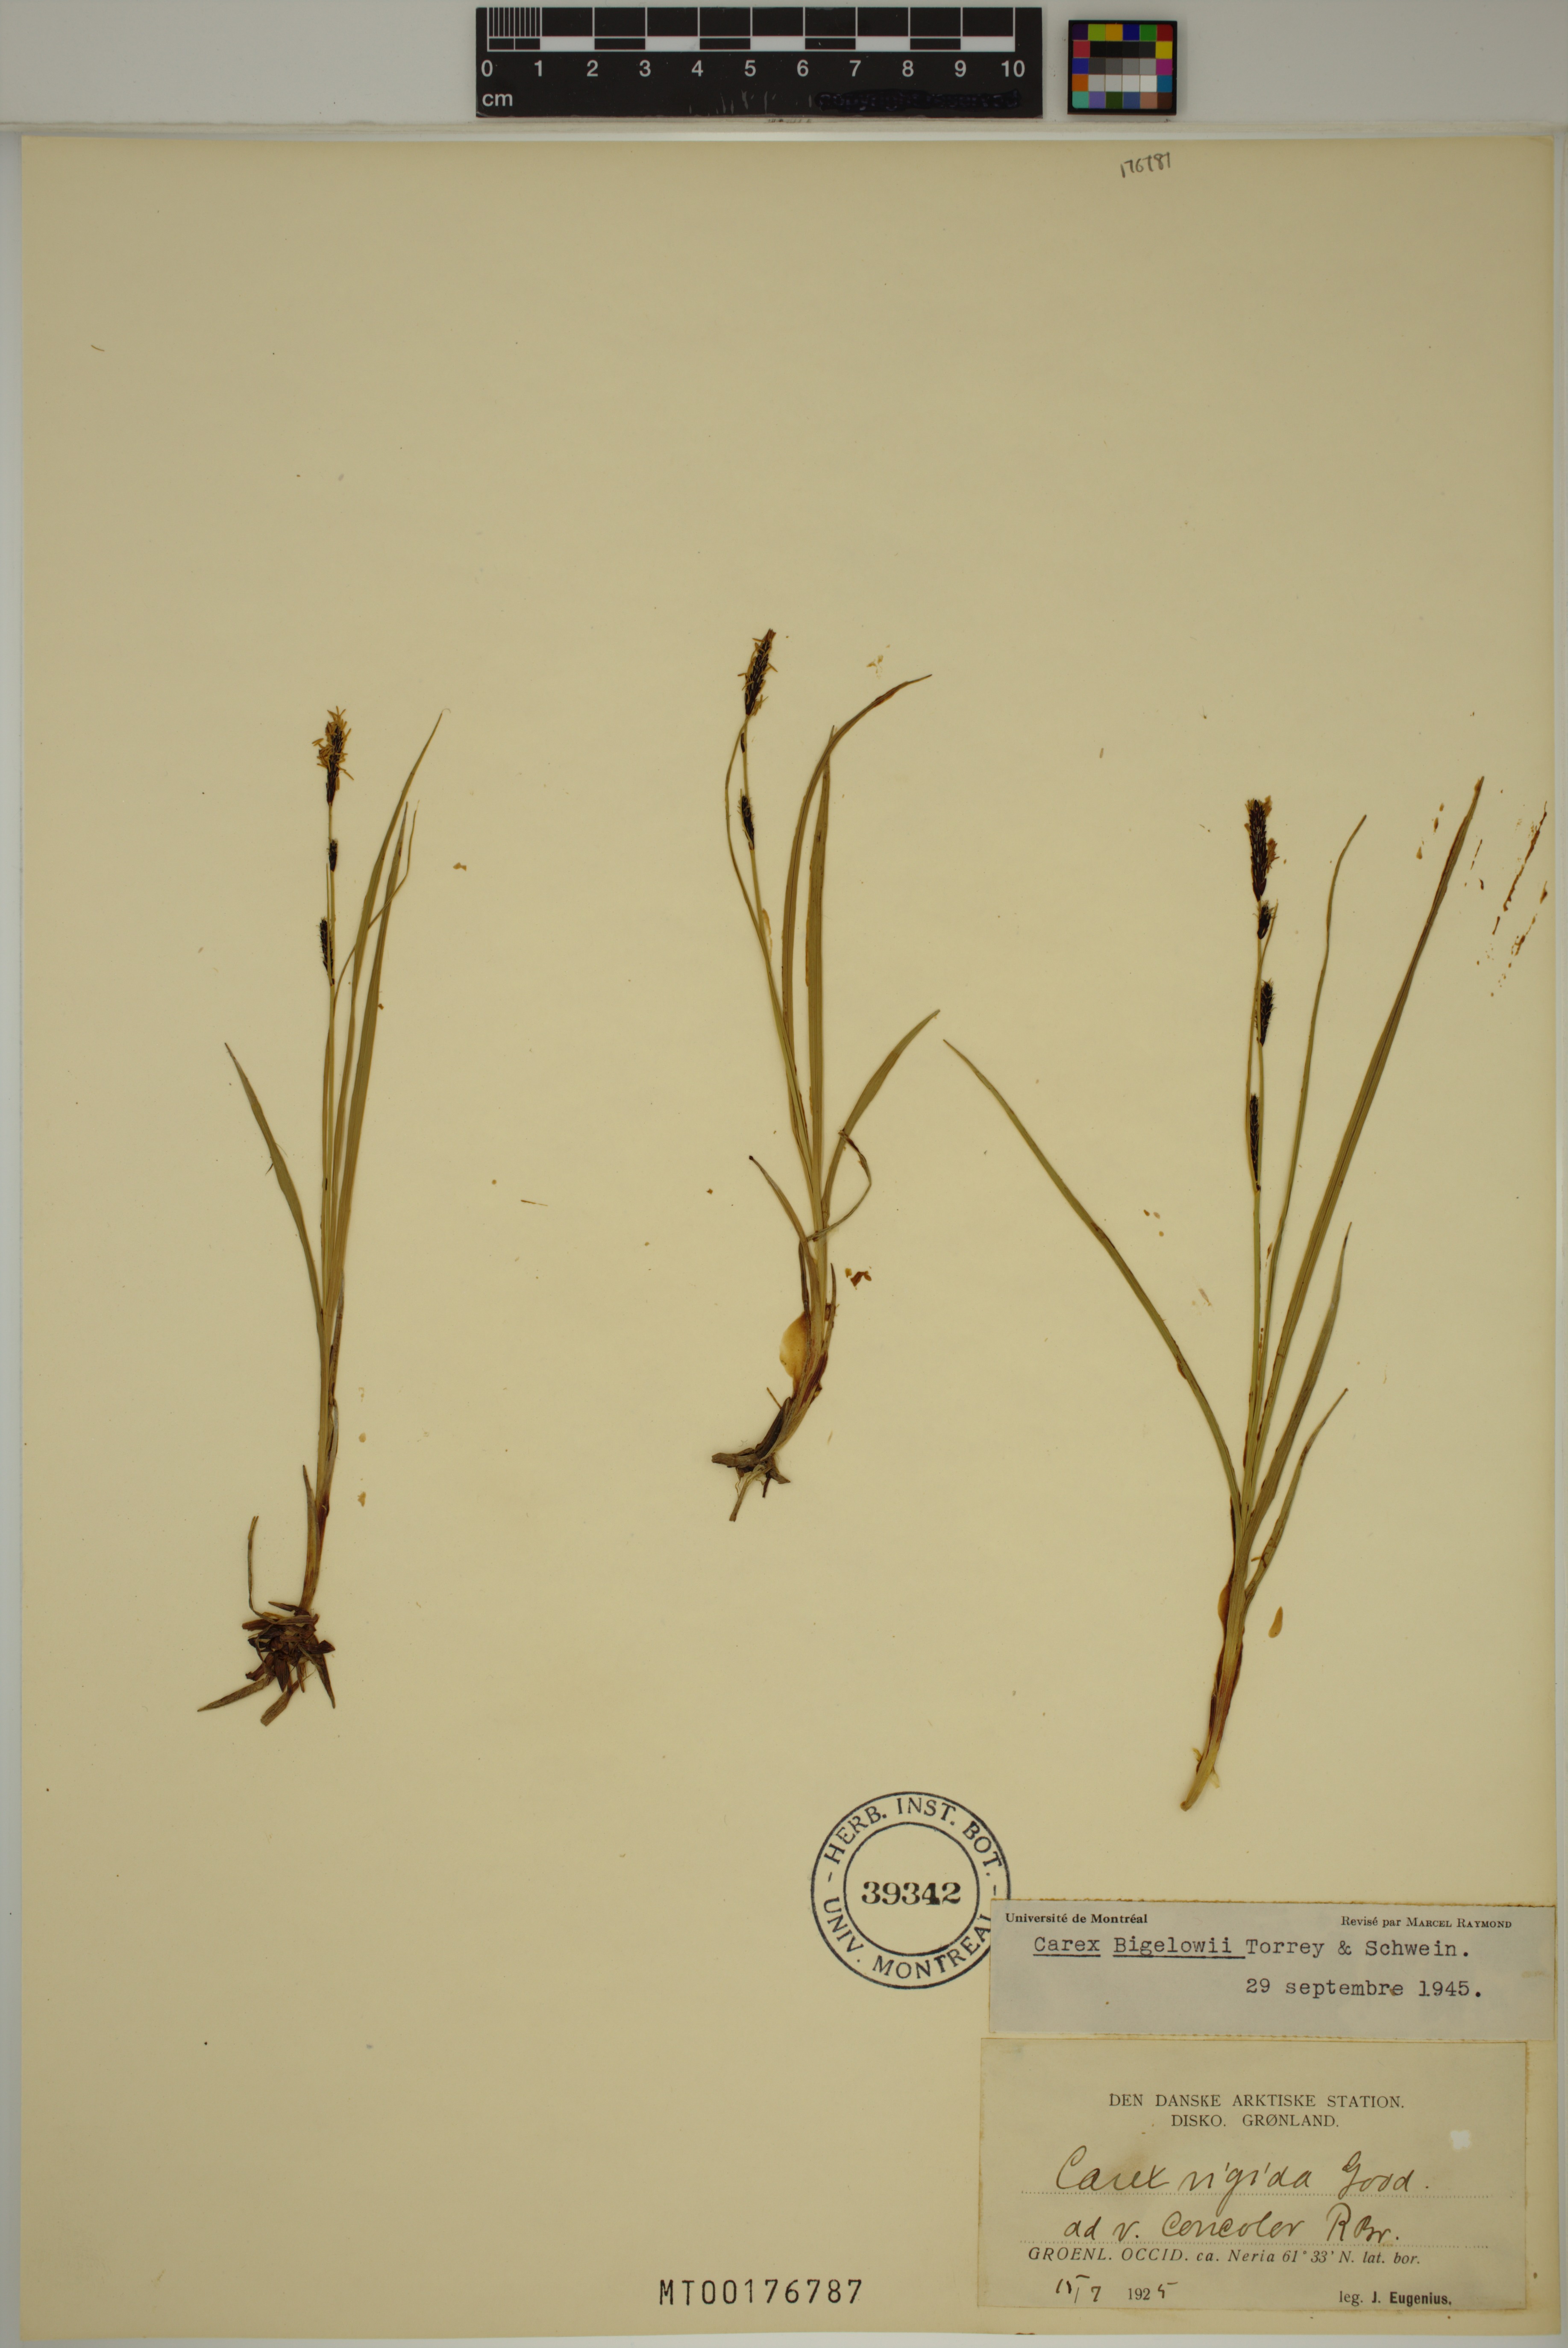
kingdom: Plantae
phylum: Tracheophyta
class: Liliopsida
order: Poales
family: Cyperaceae
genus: Carex
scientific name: Carex bigelowii
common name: Stiff sedge
